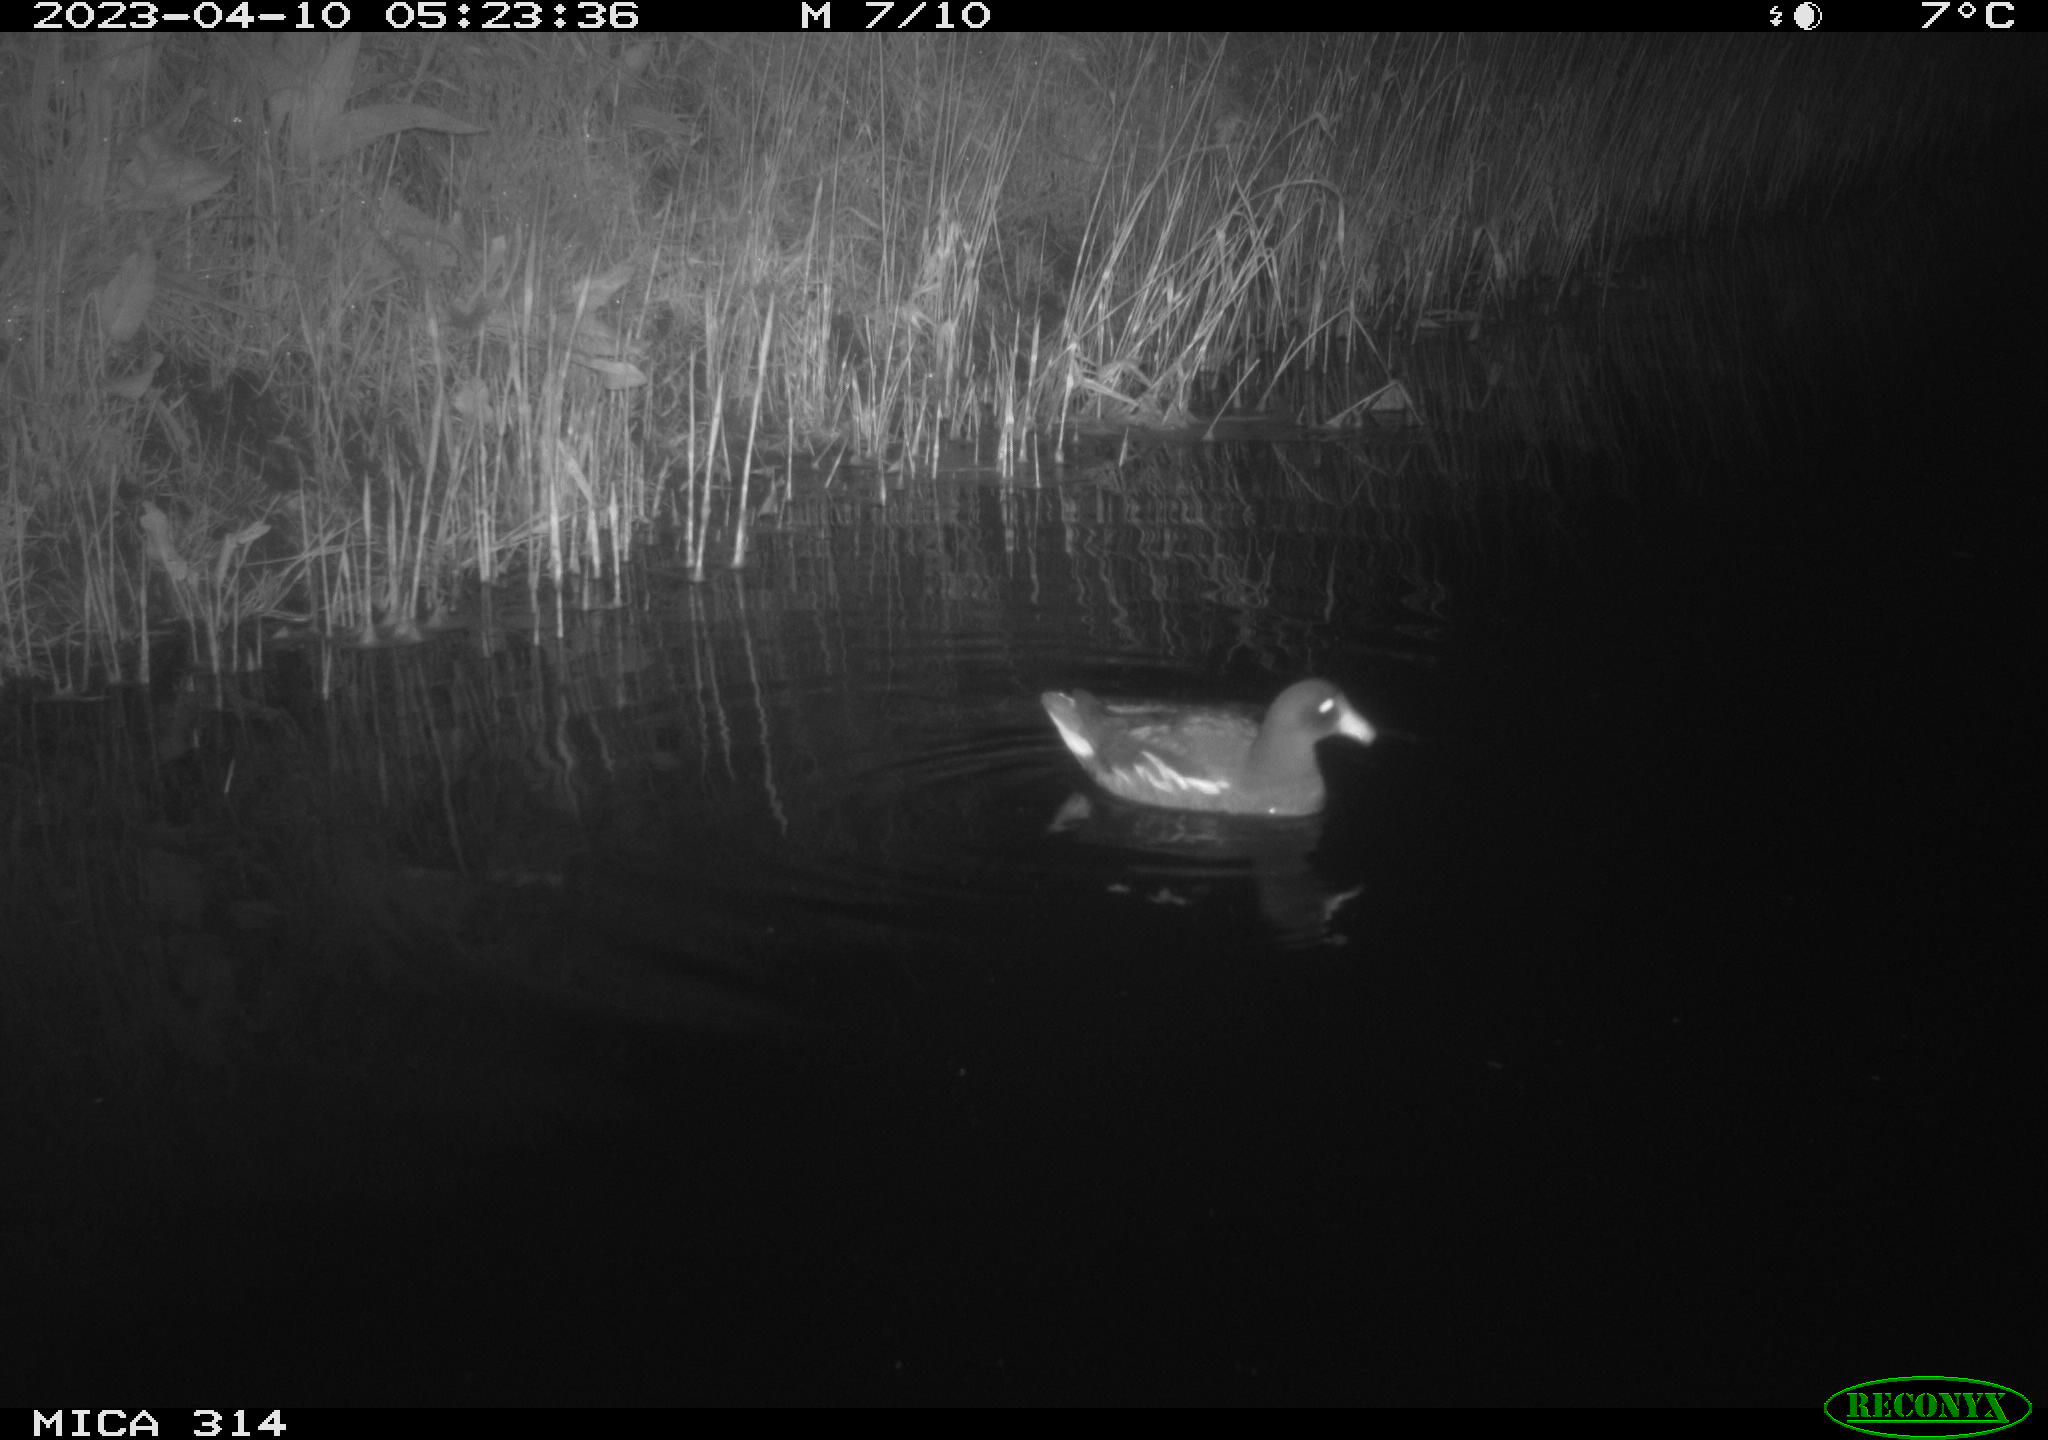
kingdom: Animalia
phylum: Chordata
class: Aves
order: Gruiformes
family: Rallidae
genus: Gallinula
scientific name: Gallinula chloropus
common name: Common moorhen
